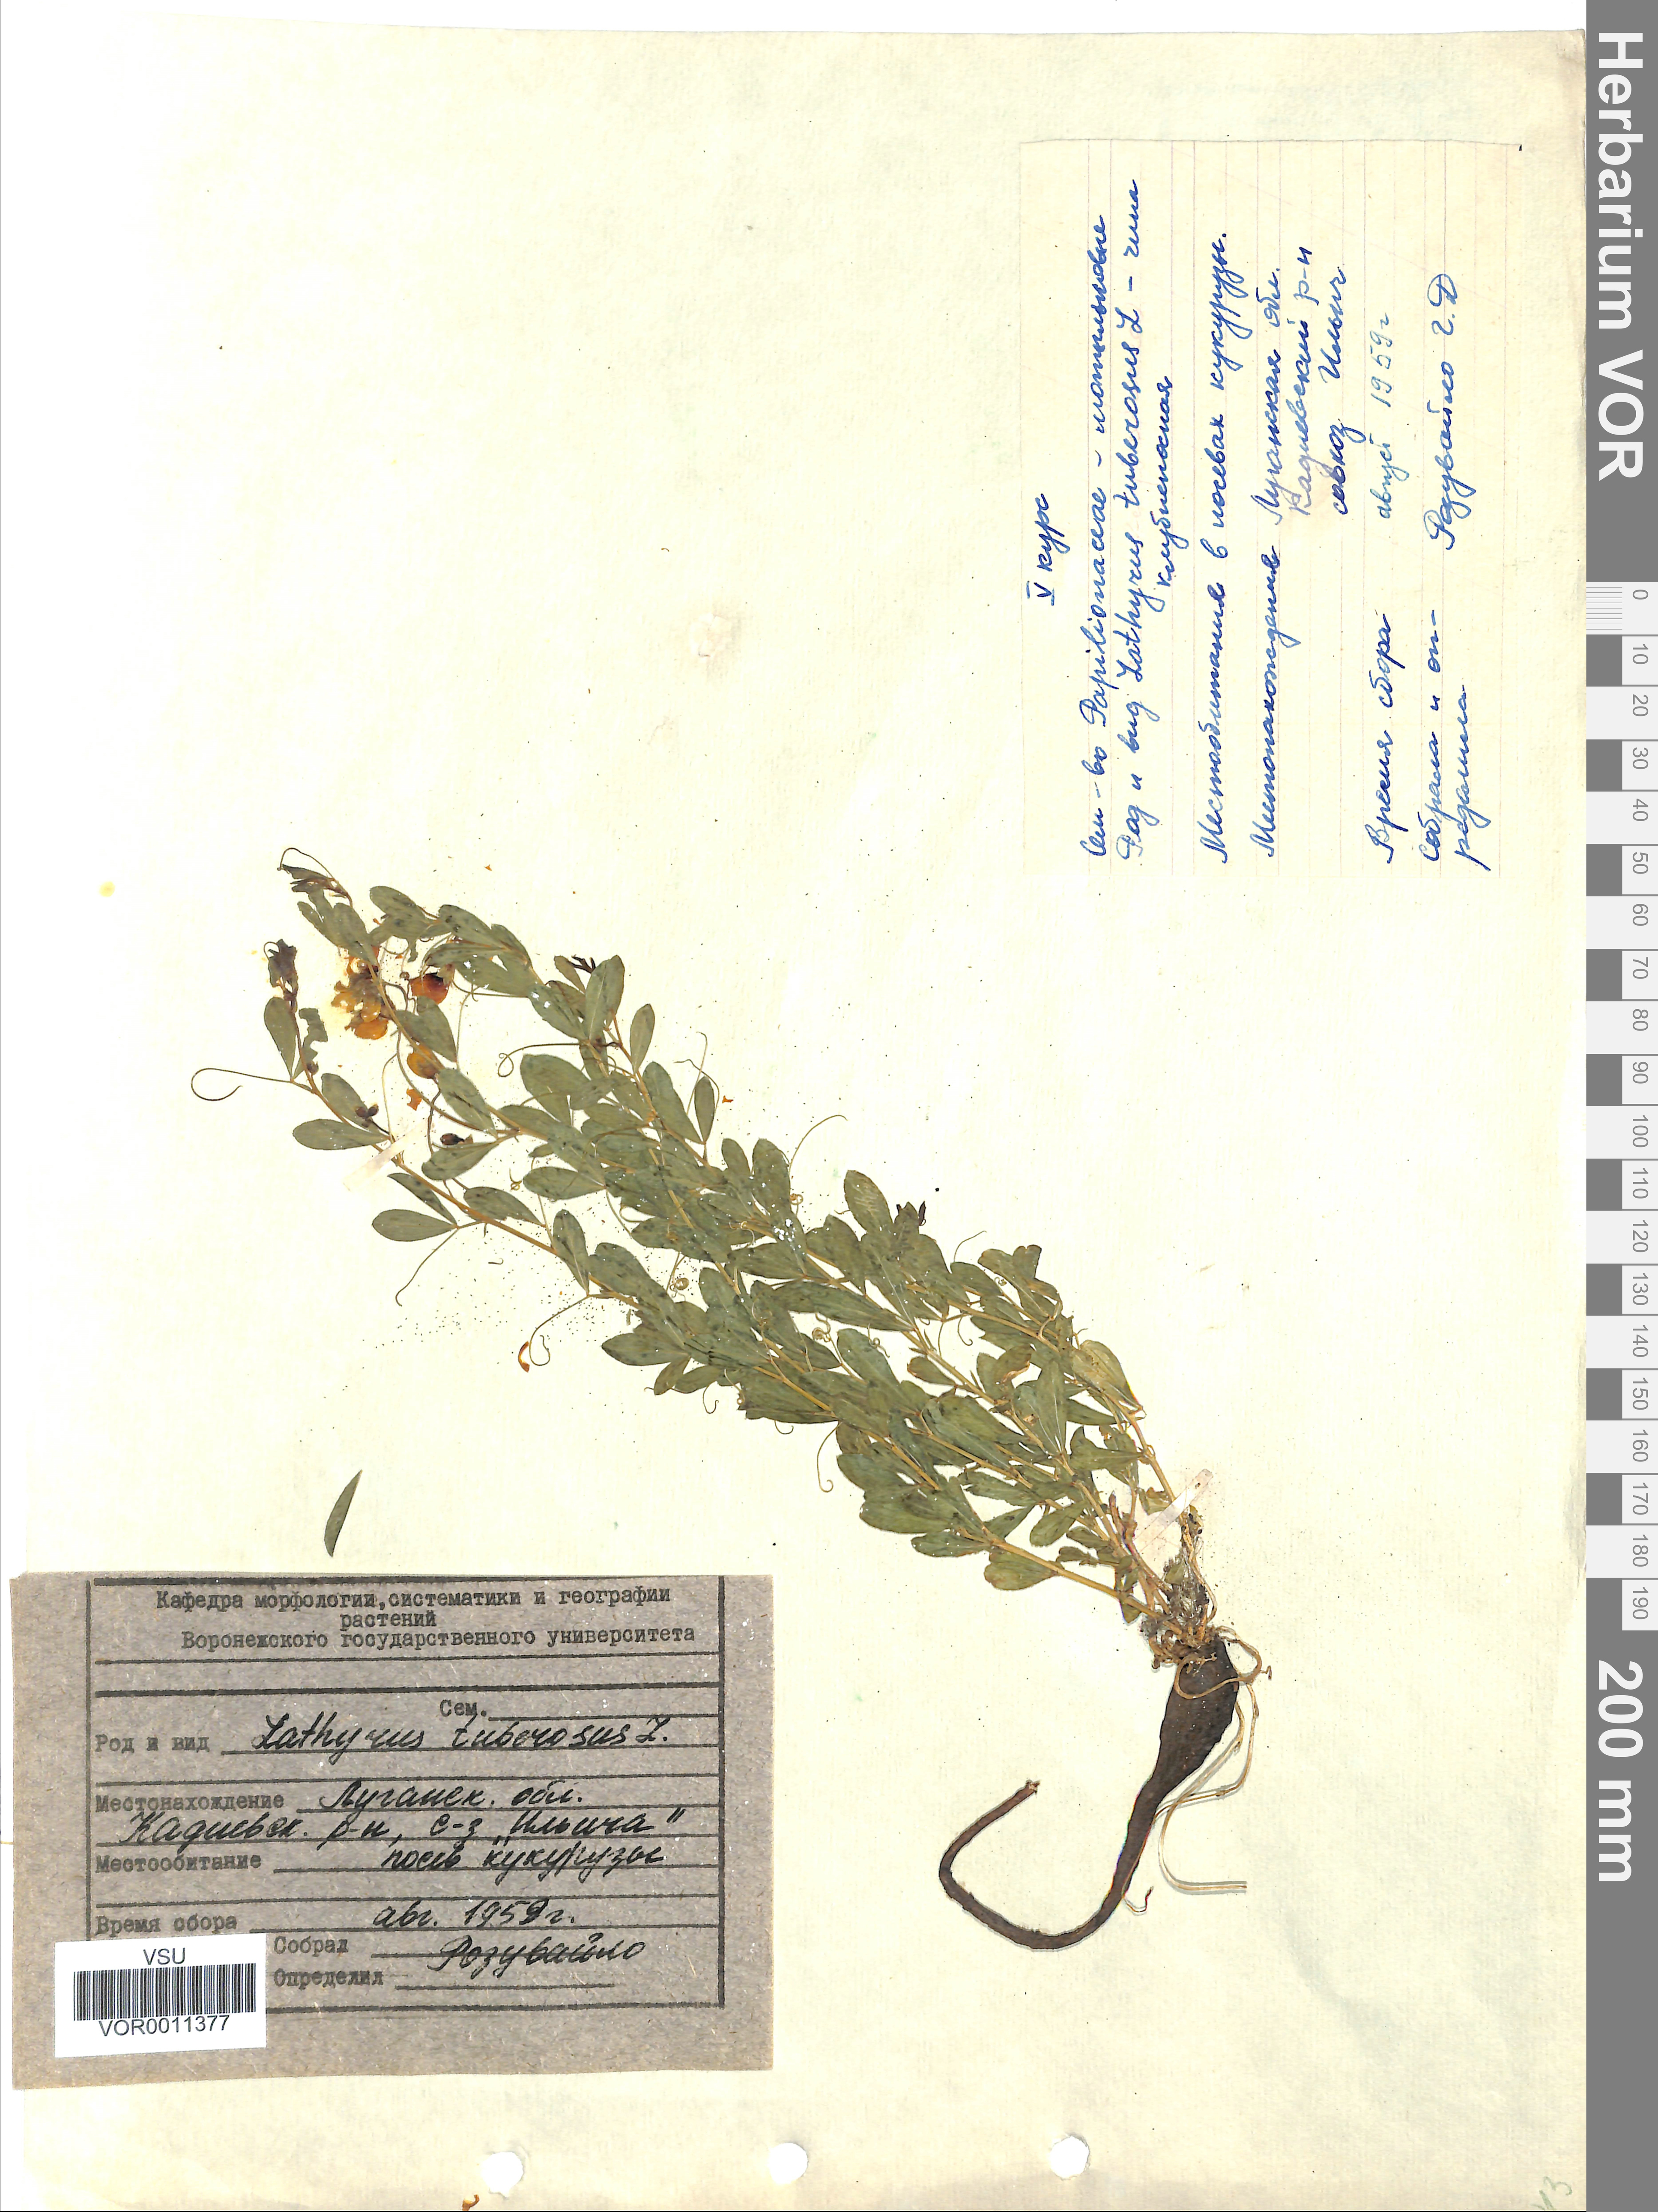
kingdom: Plantae
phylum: Tracheophyta
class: Magnoliopsida
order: Fabales
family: Fabaceae
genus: Lathyrus
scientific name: Lathyrus tuberosus
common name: Tuberous pea
